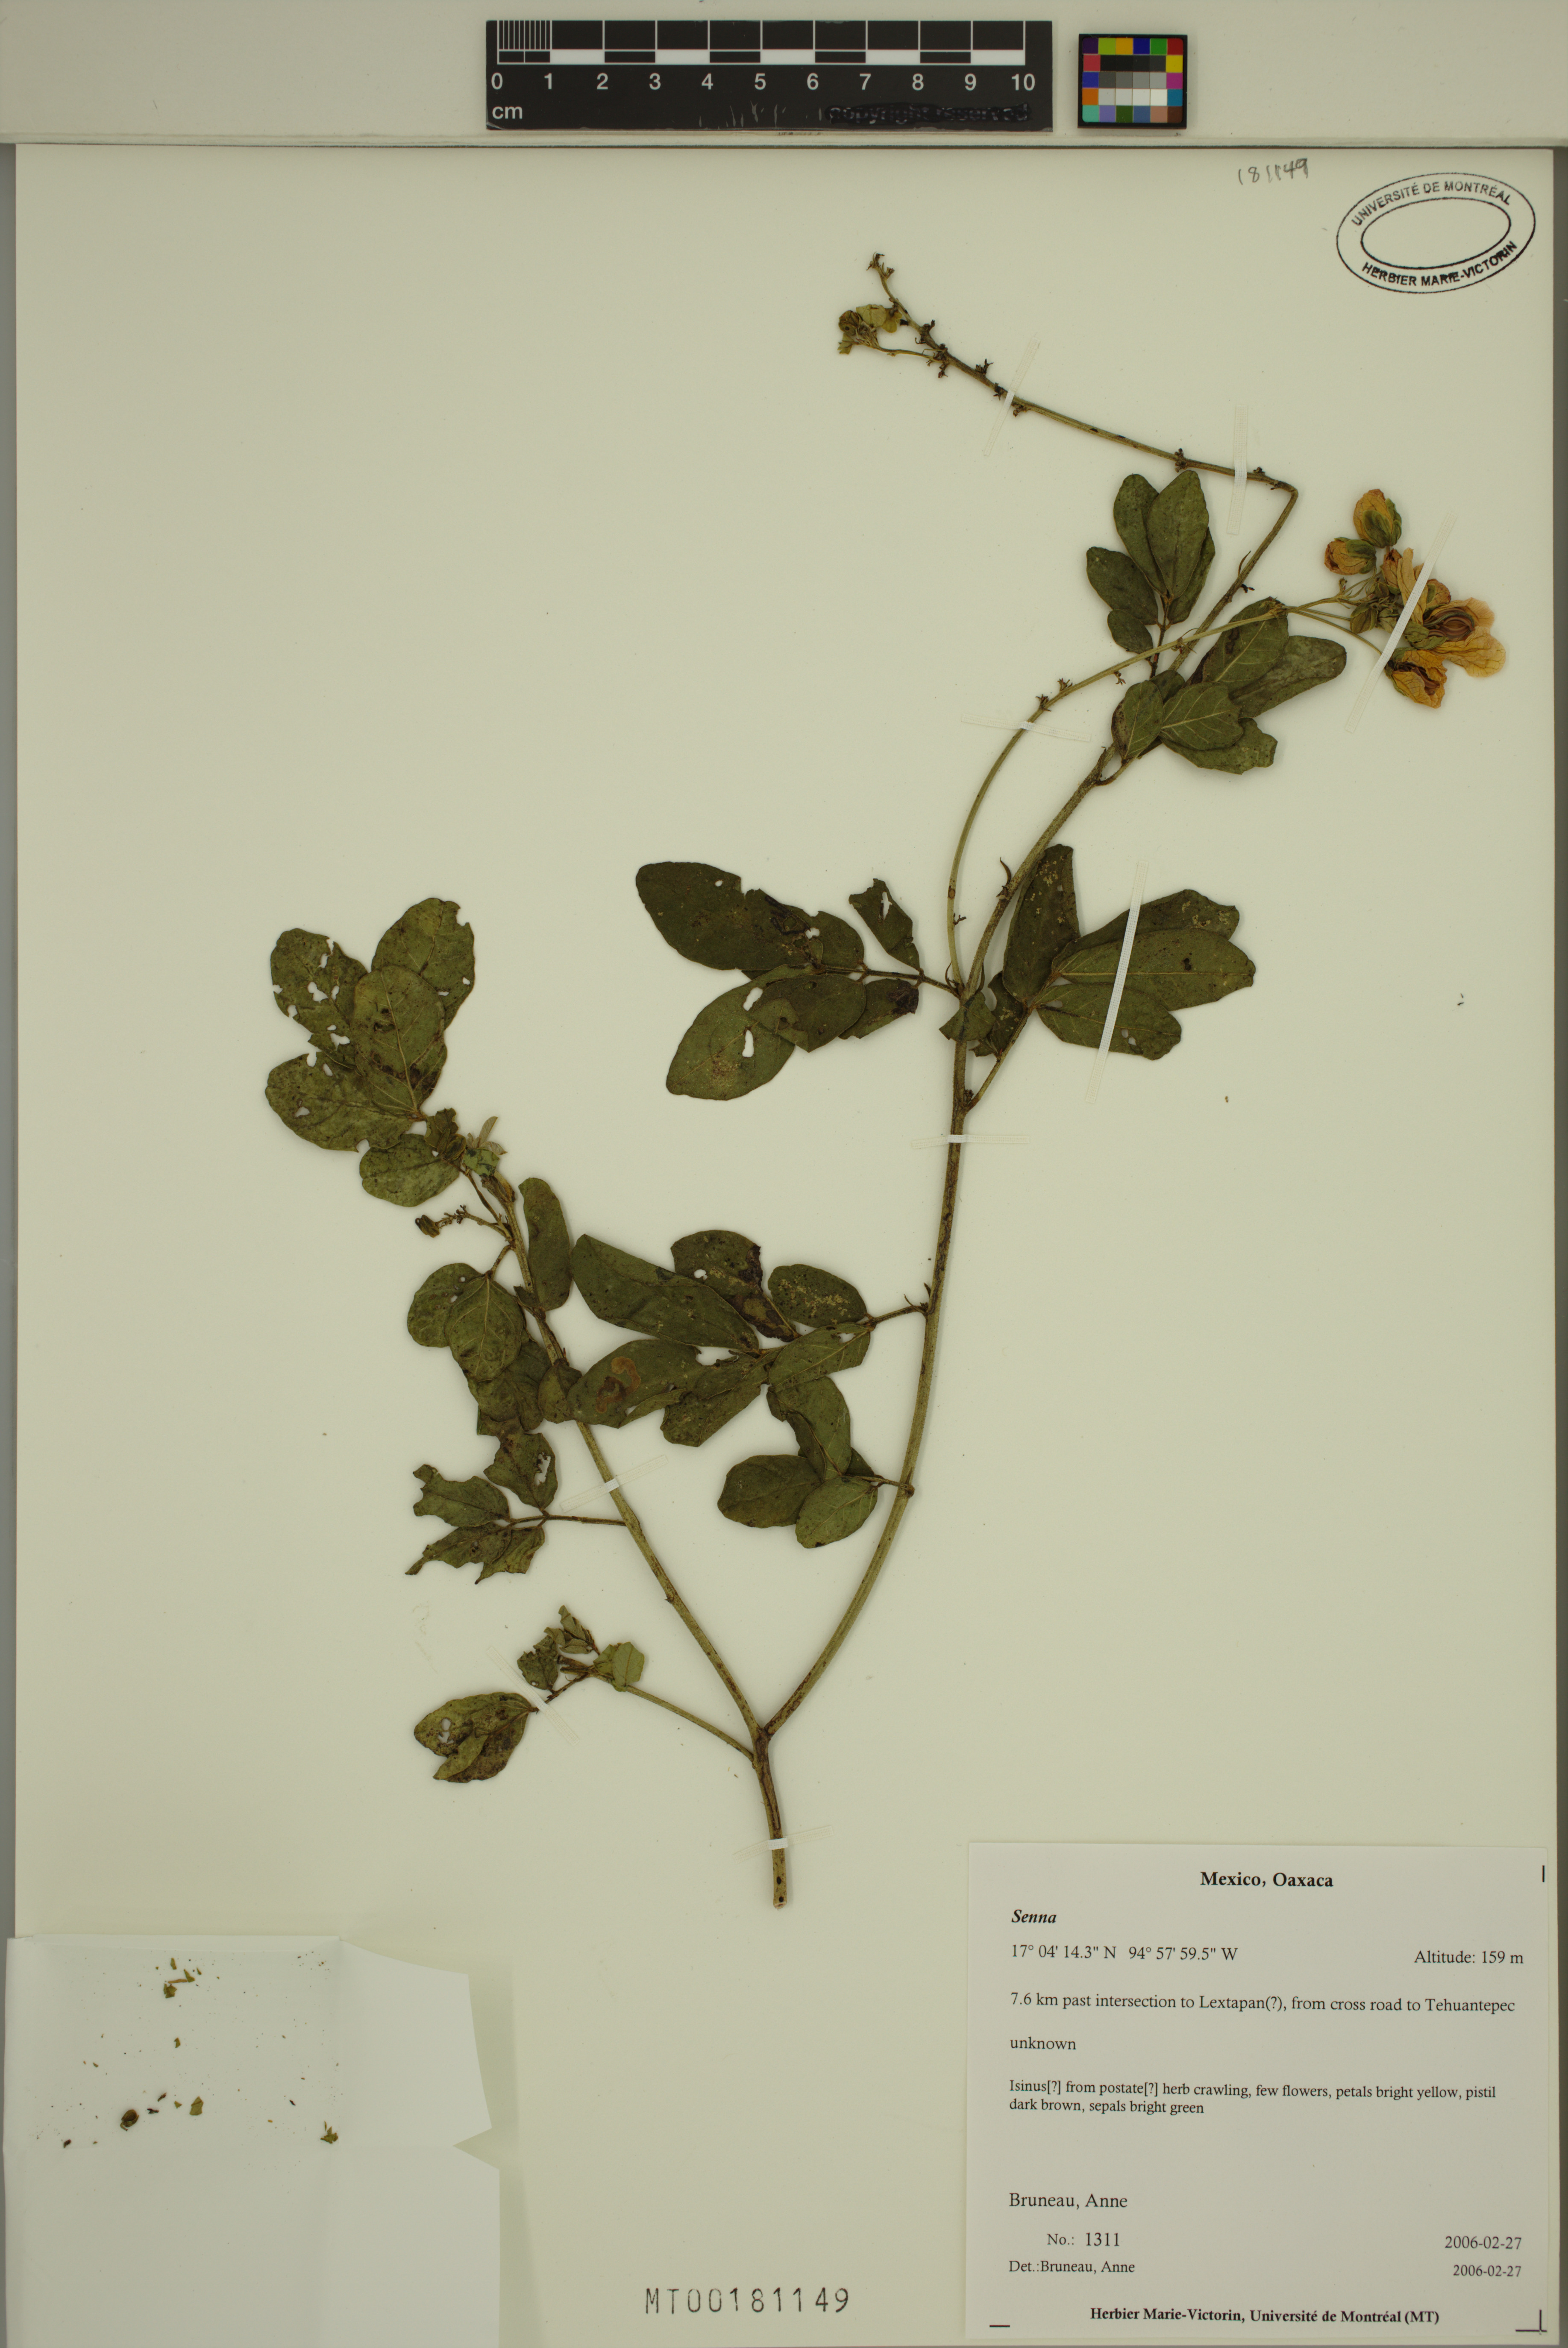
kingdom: Plantae
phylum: Tracheophyta
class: Magnoliopsida
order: Fabales
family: Fabaceae
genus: Senna
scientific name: Senna
